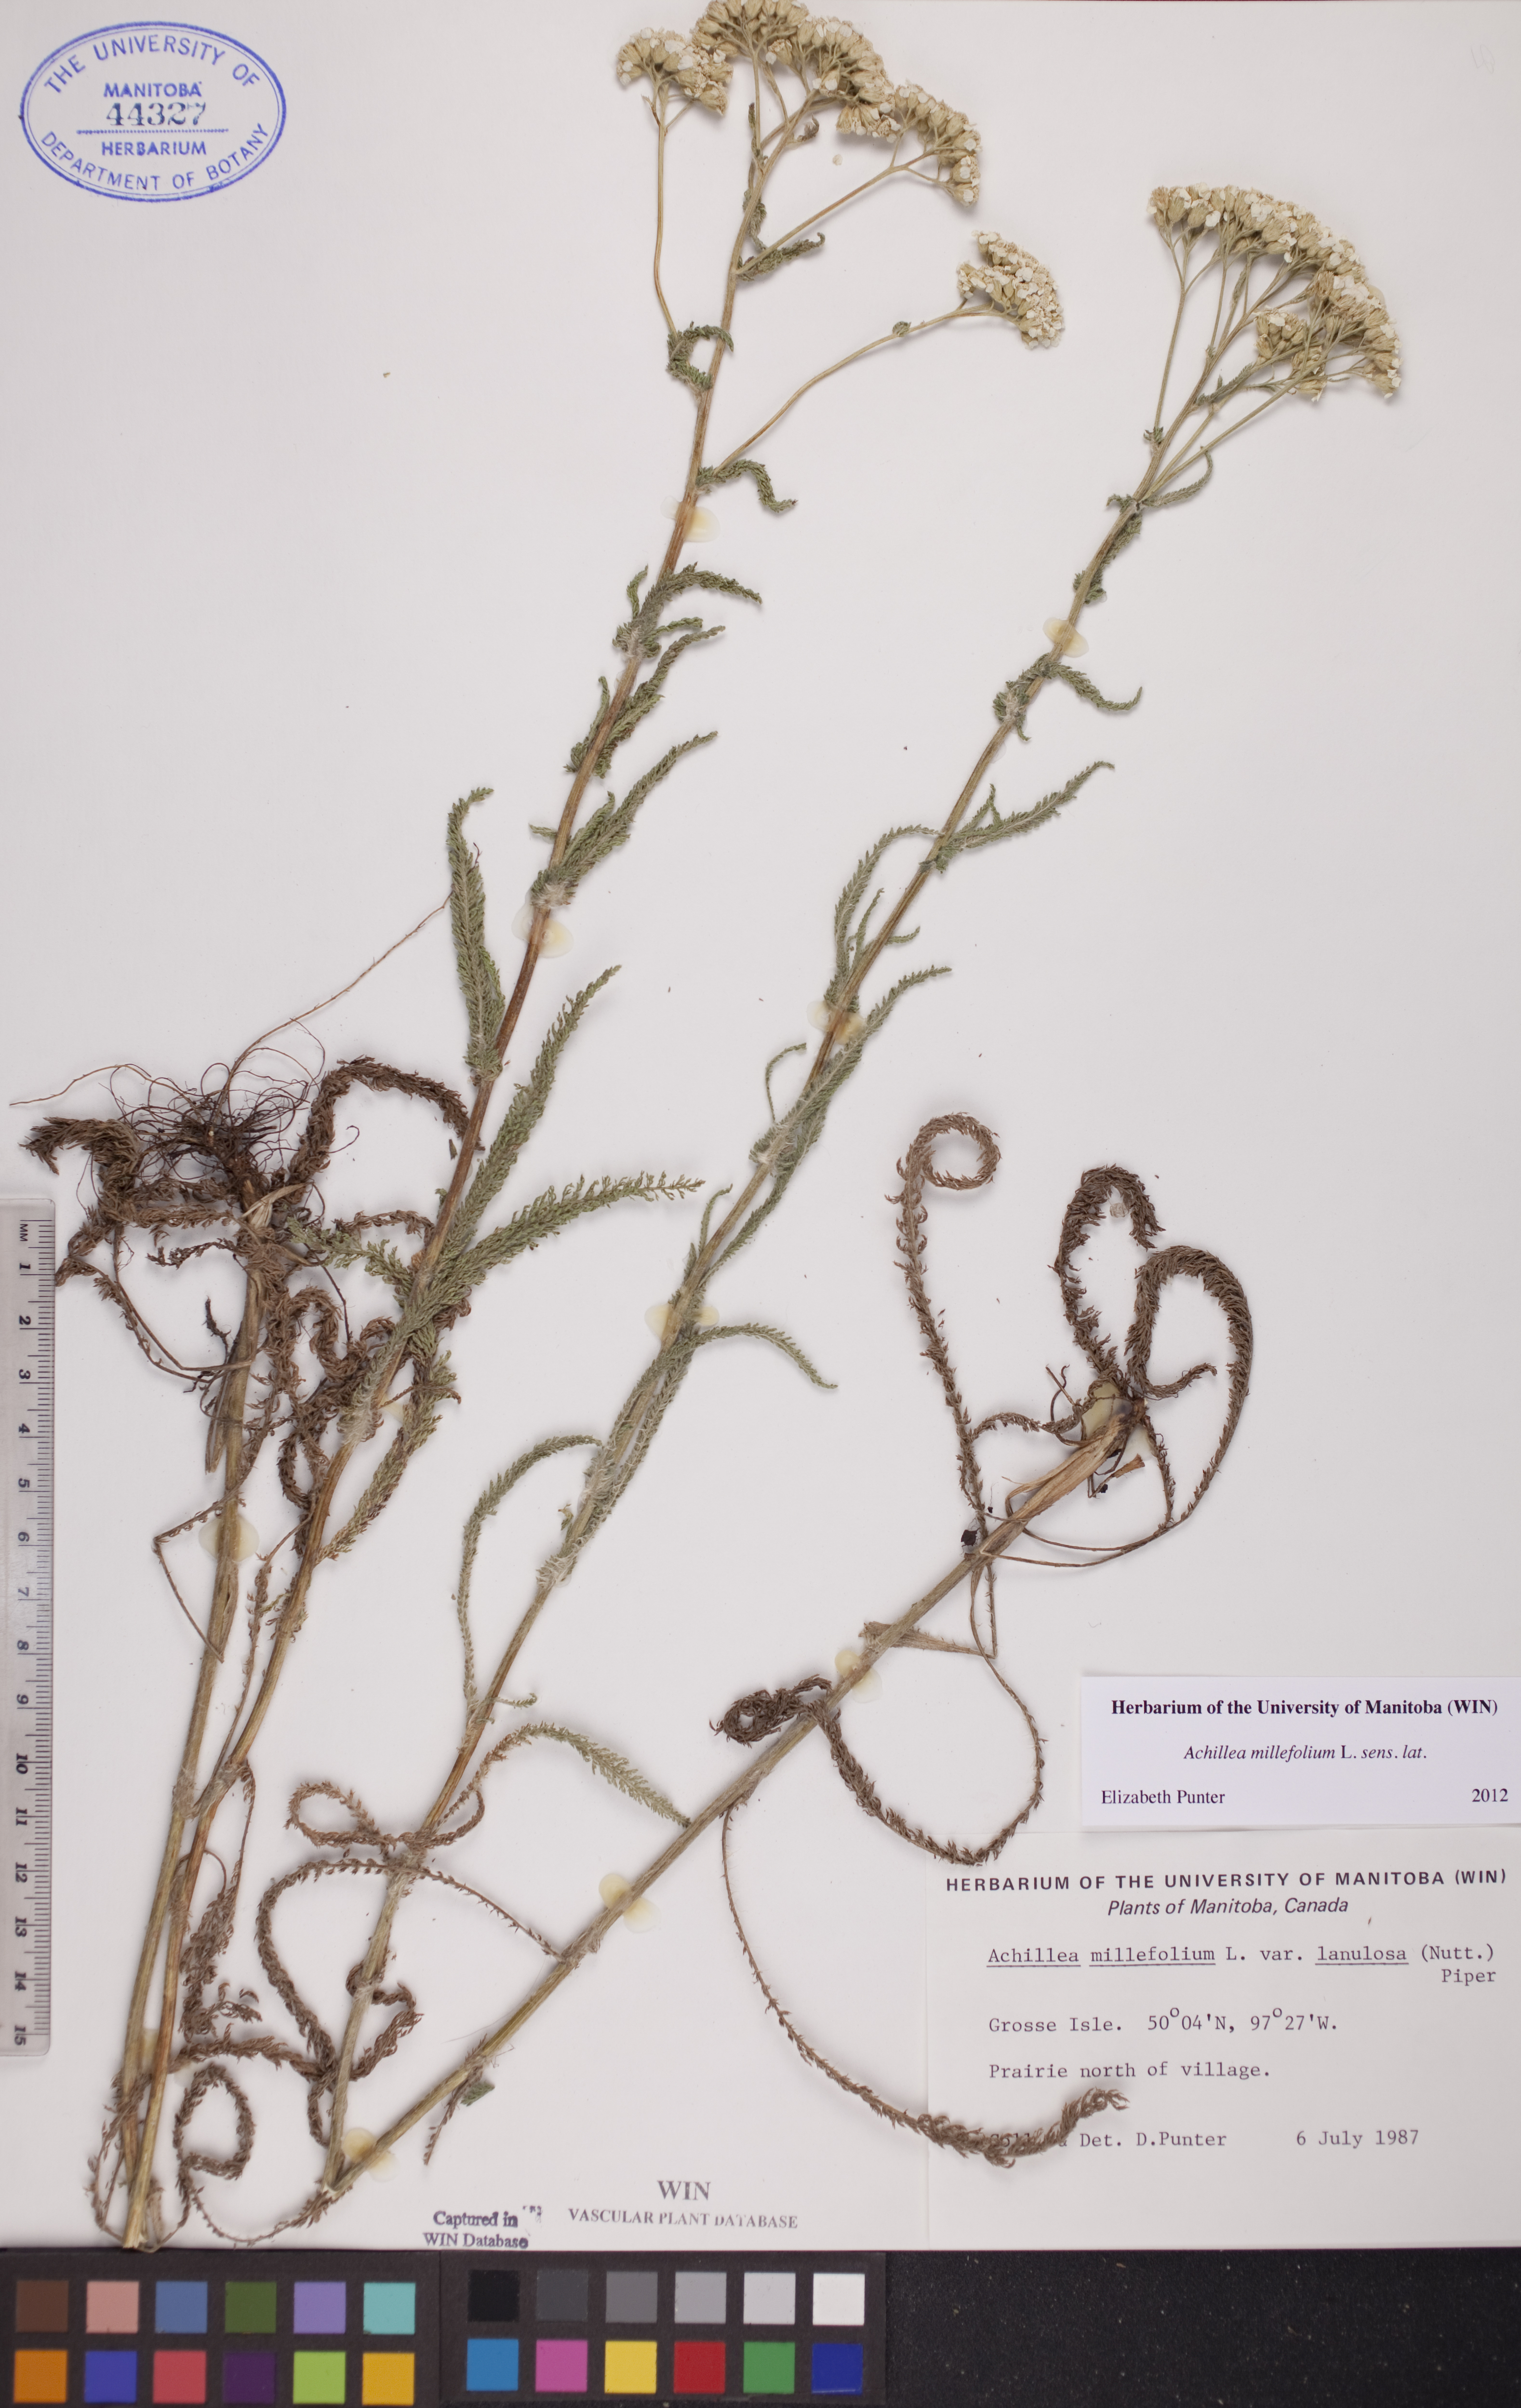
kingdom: Plantae
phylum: Tracheophyta
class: Magnoliopsida
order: Asterales
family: Asteraceae
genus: Achillea
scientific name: Achillea millefolium
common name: Yarrow
